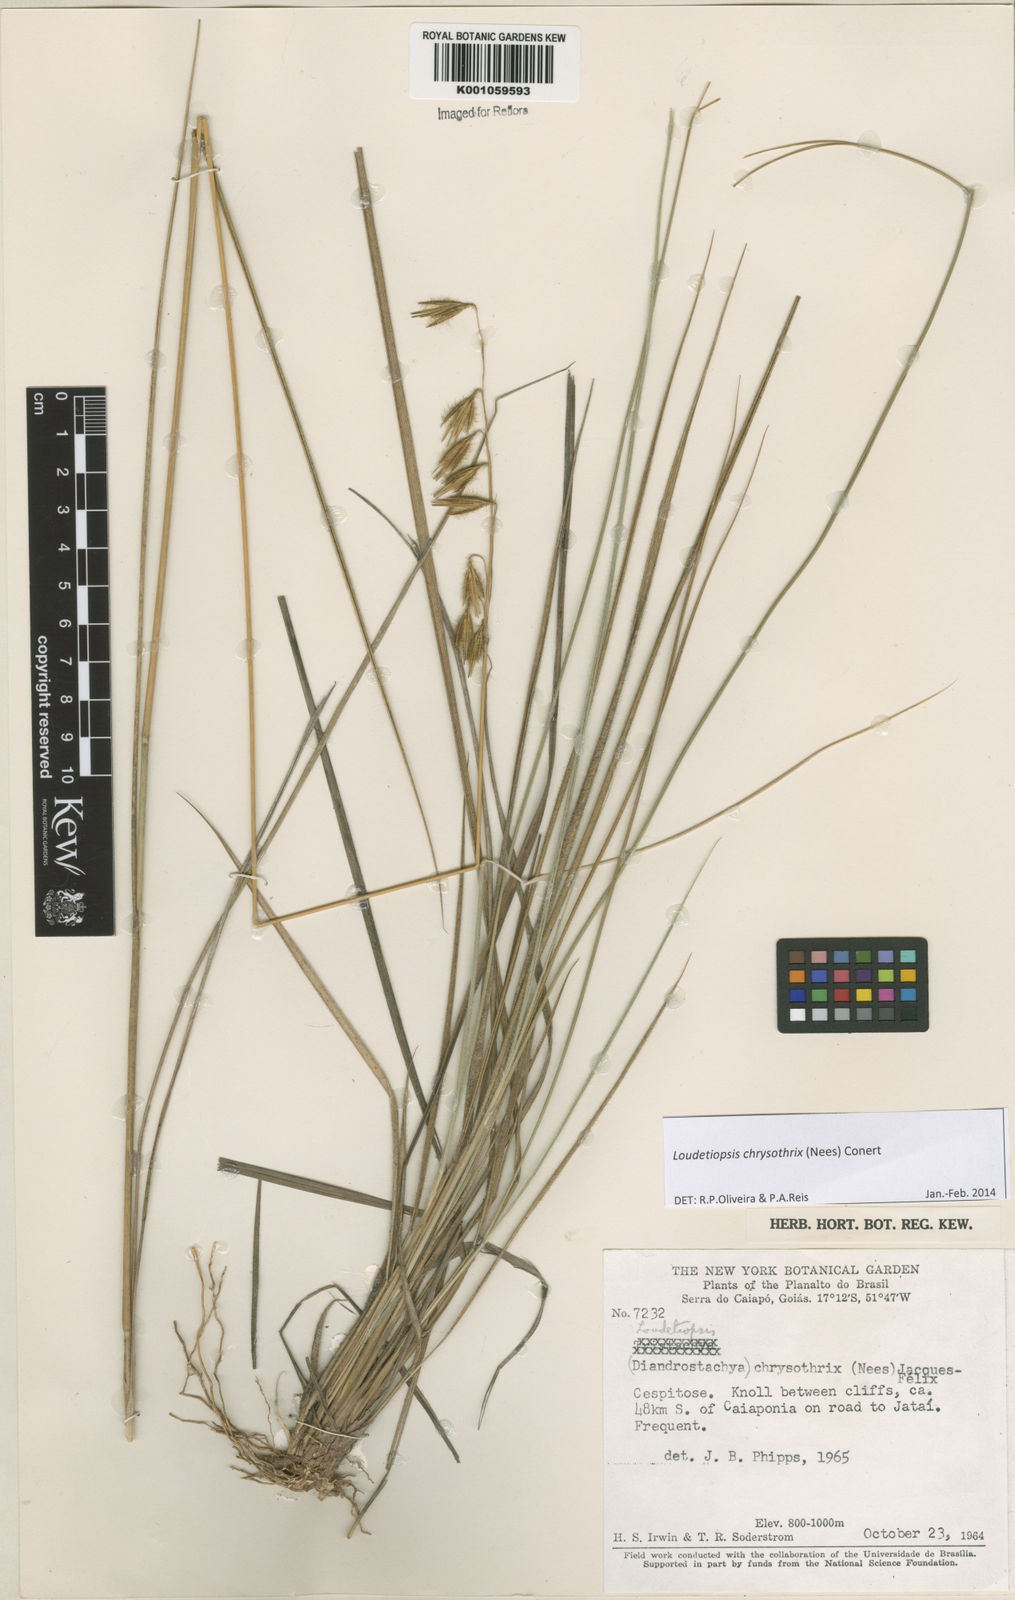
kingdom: Plantae
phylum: Tracheophyta
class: Liliopsida
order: Poales
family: Poaceae
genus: Loudetiopsis
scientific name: Loudetiopsis chrysothrix
